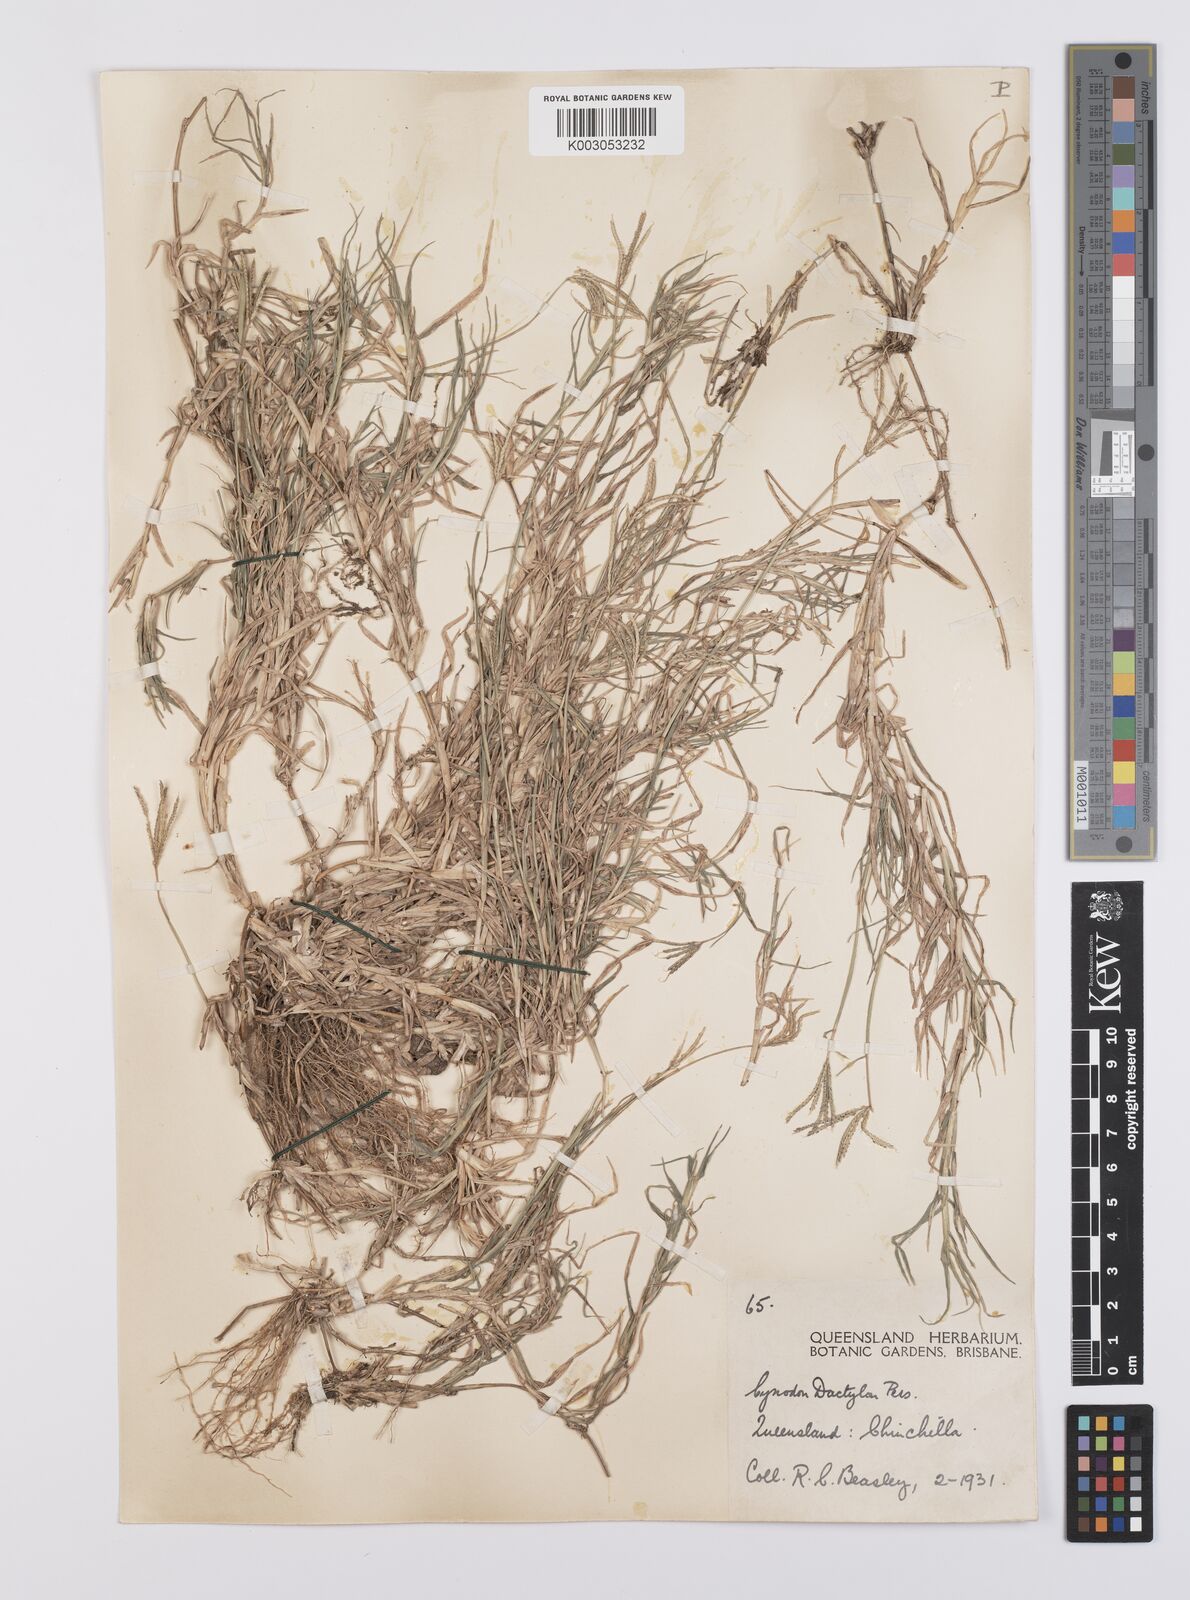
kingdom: Plantae
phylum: Tracheophyta
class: Liliopsida
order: Poales
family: Poaceae
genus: Cynodon
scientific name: Cynodon dactylon
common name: Bermuda grass
